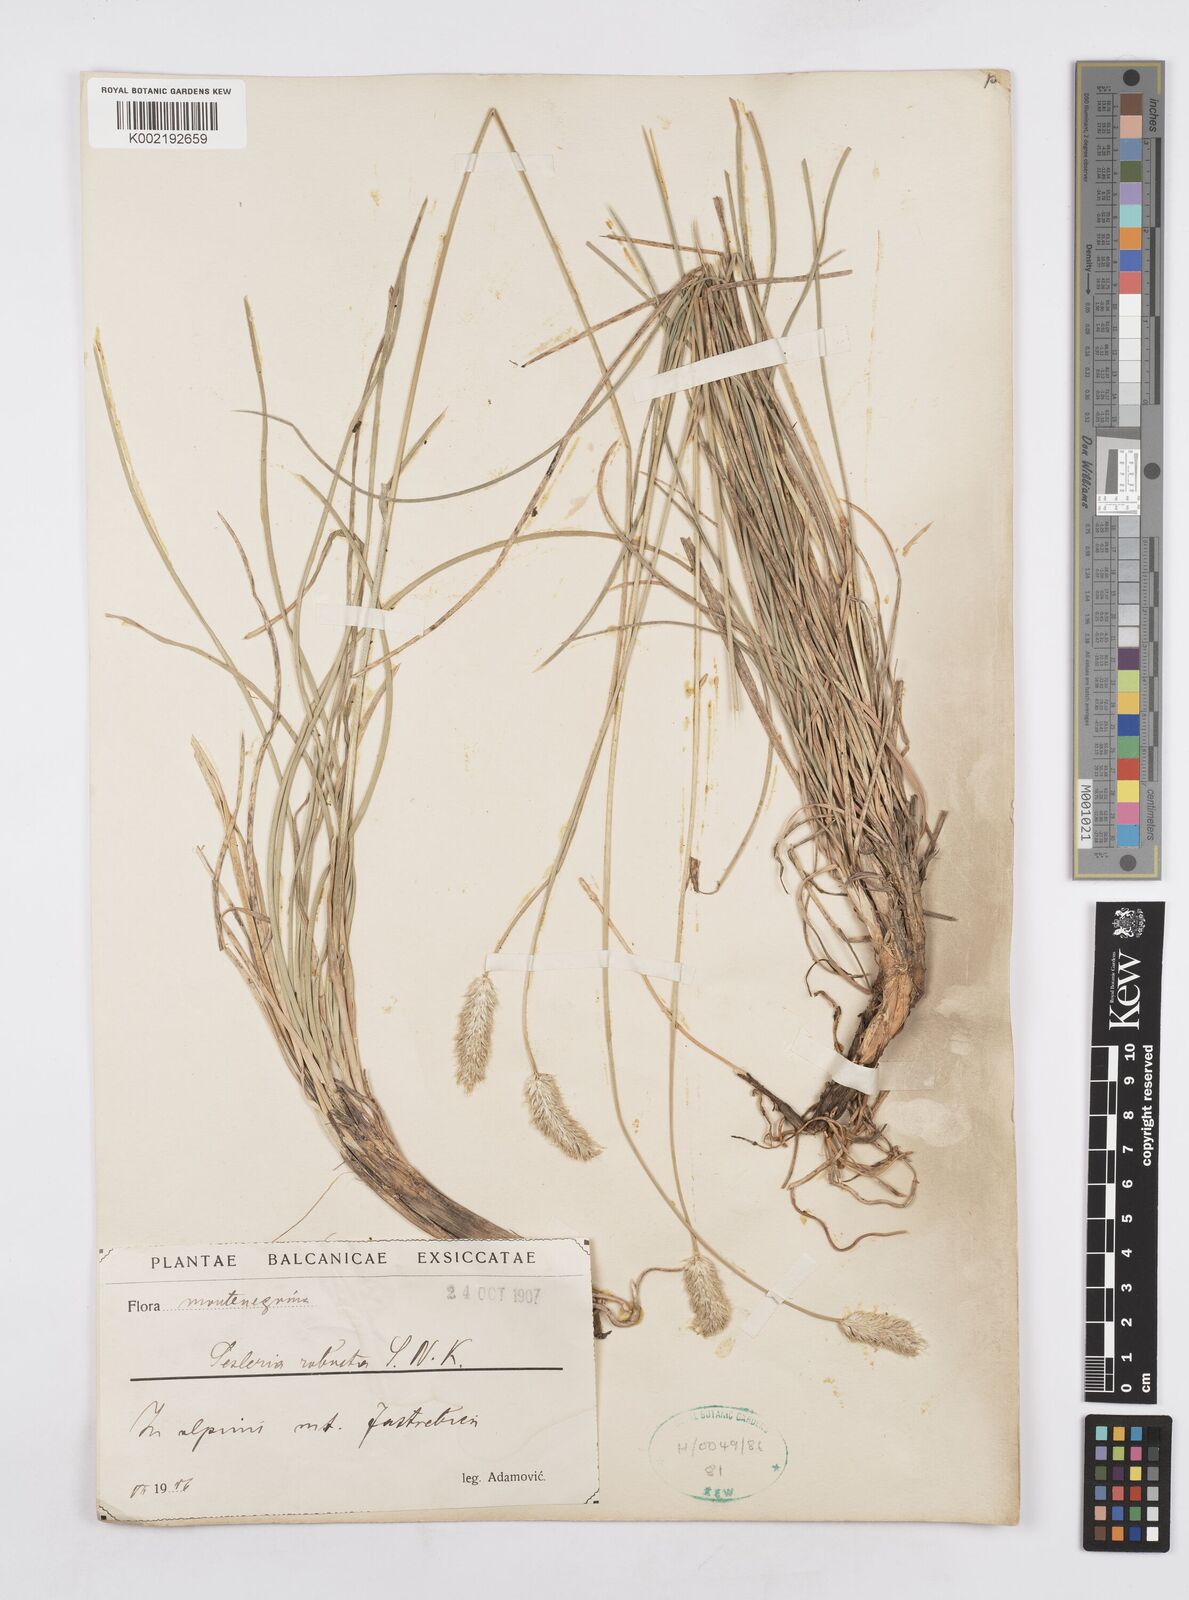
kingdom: Plantae
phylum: Tracheophyta
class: Liliopsida
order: Poales
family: Poaceae
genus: Sesleria
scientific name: Sesleria robusta
